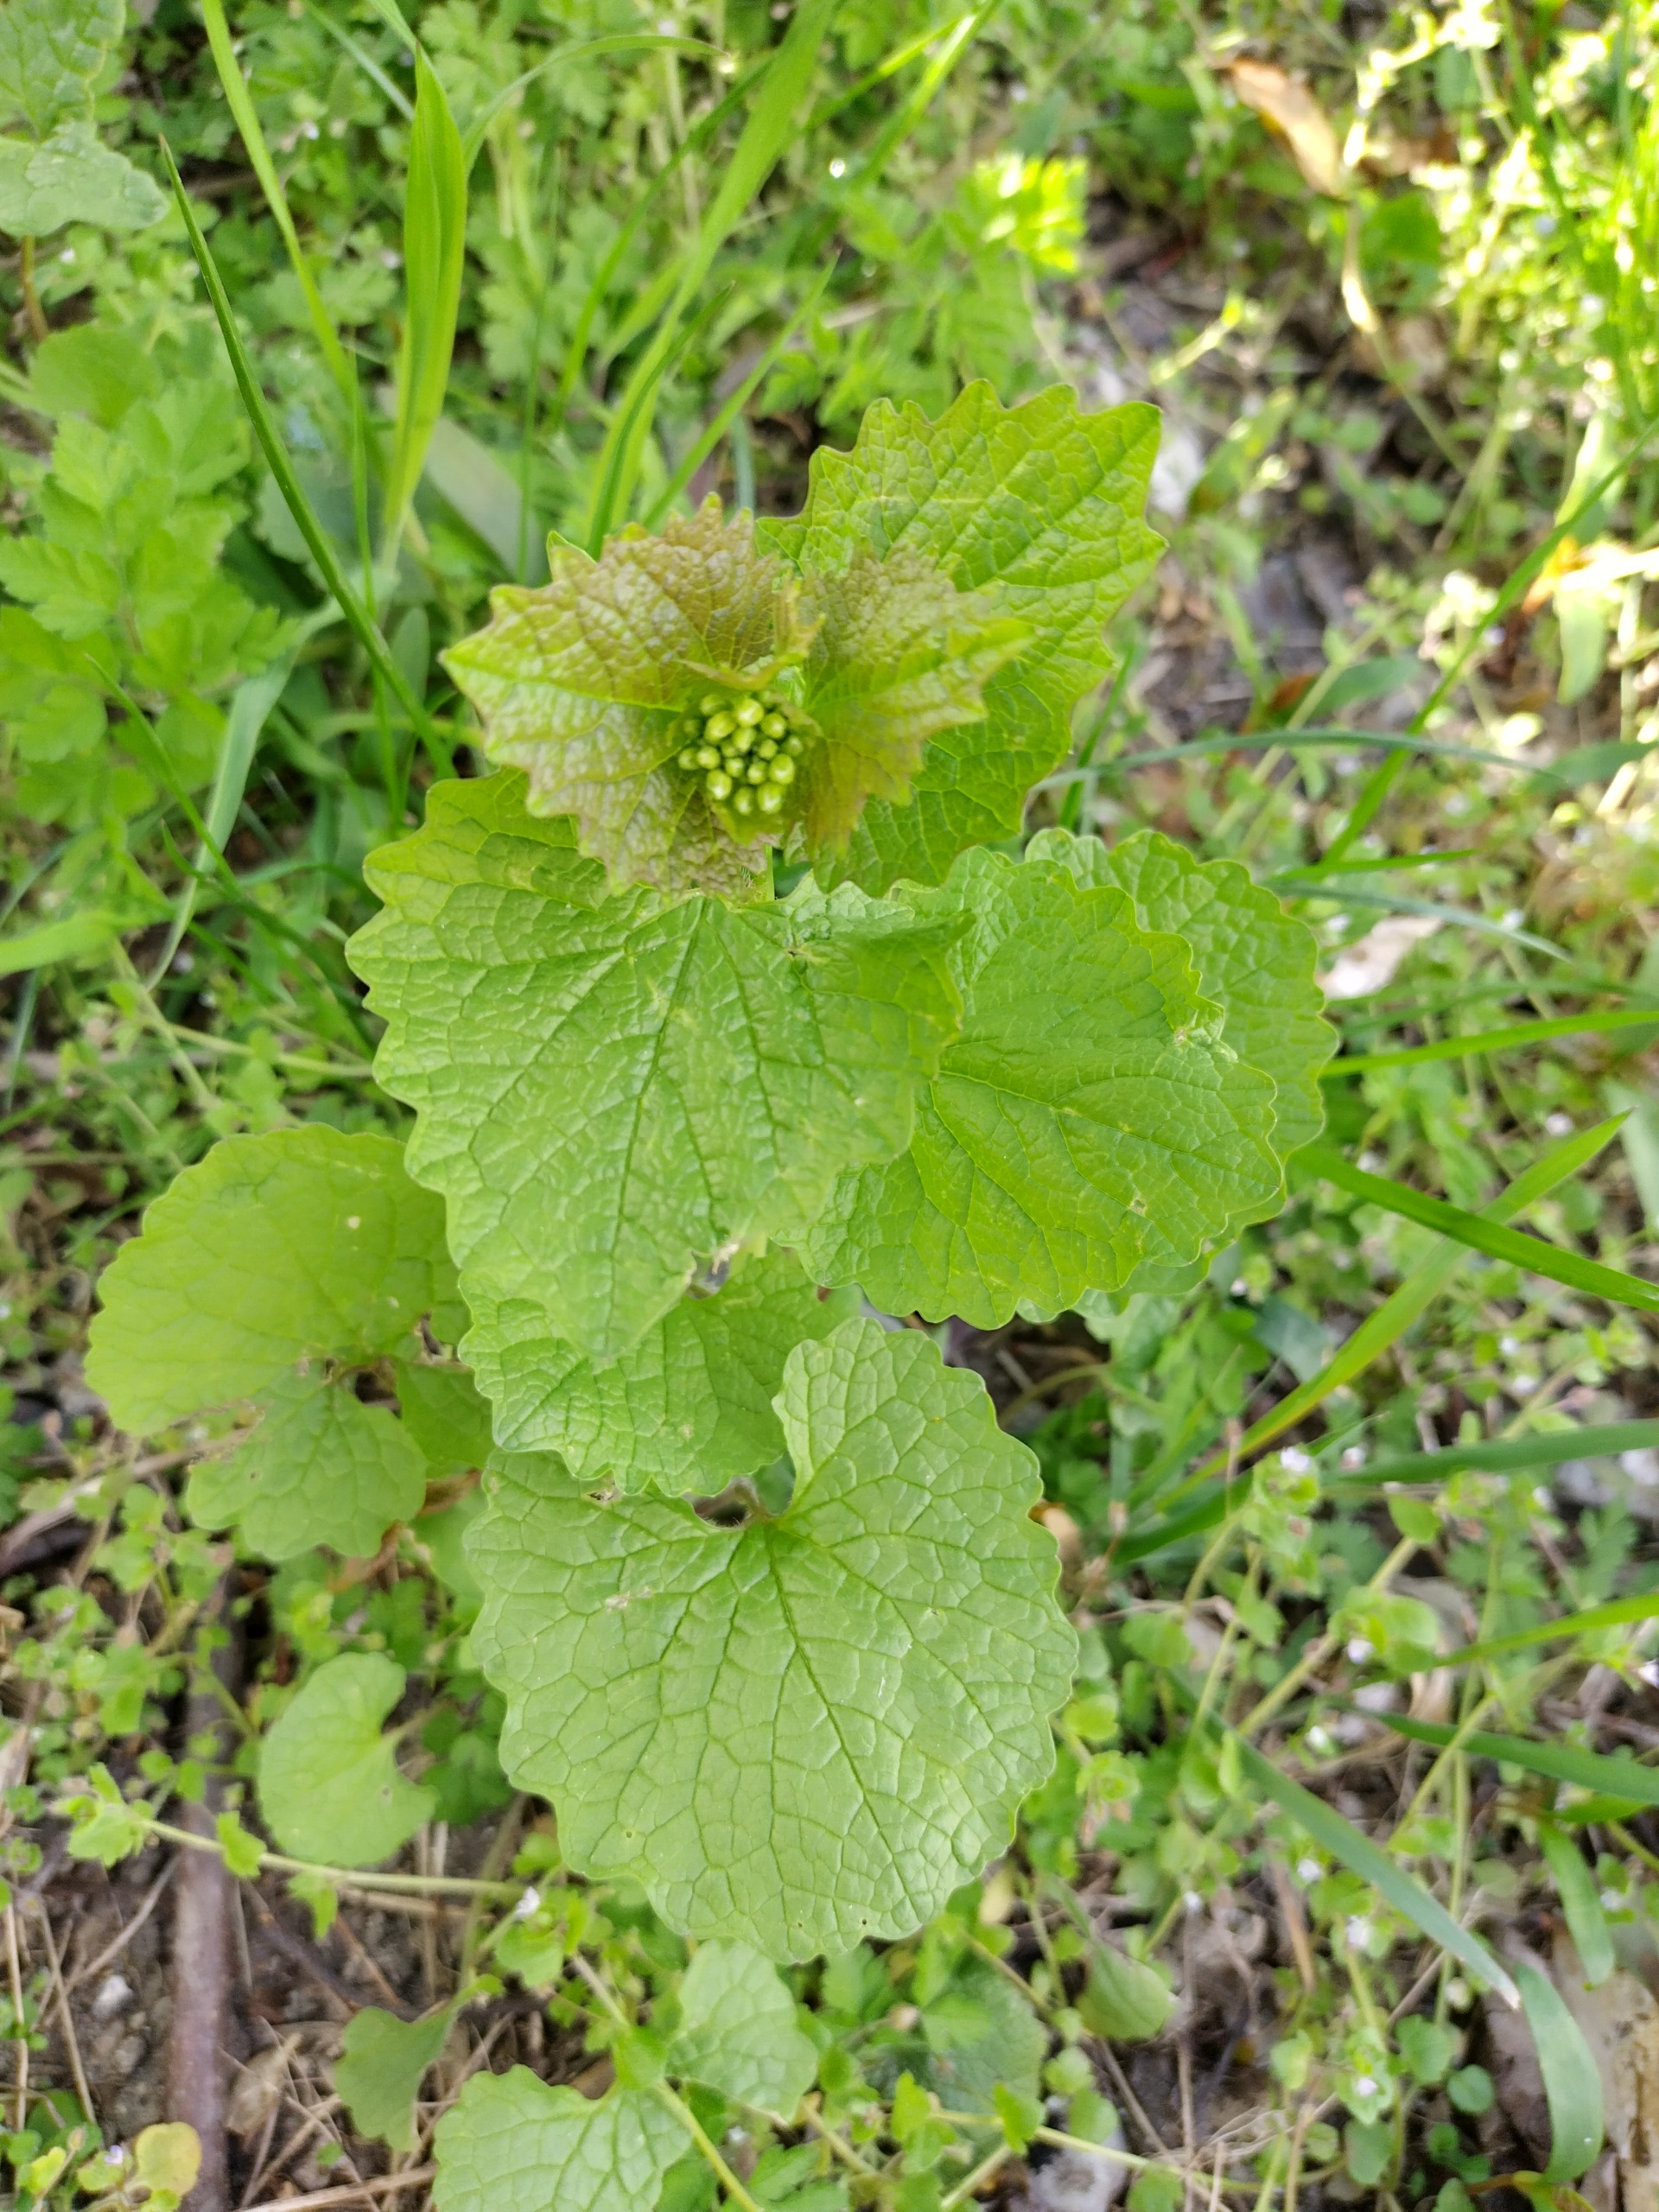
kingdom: Plantae
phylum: Tracheophyta
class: Magnoliopsida
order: Brassicales
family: Brassicaceae
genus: Alliaria
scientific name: Alliaria petiolata
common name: Løgkarse
